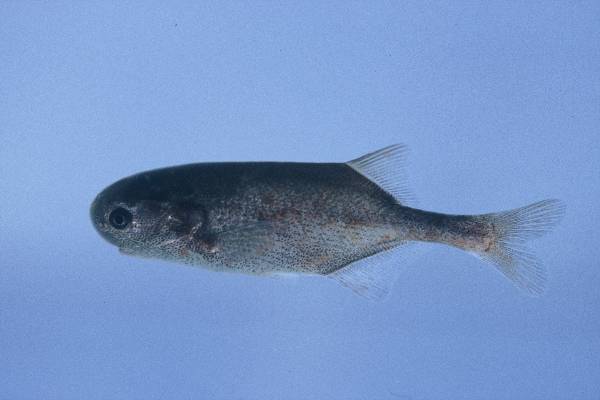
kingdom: Animalia
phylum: Chordata
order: Osteoglossiformes
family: Mormyridae
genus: Petrocephalus
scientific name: Petrocephalus catostoma
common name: Churchill
